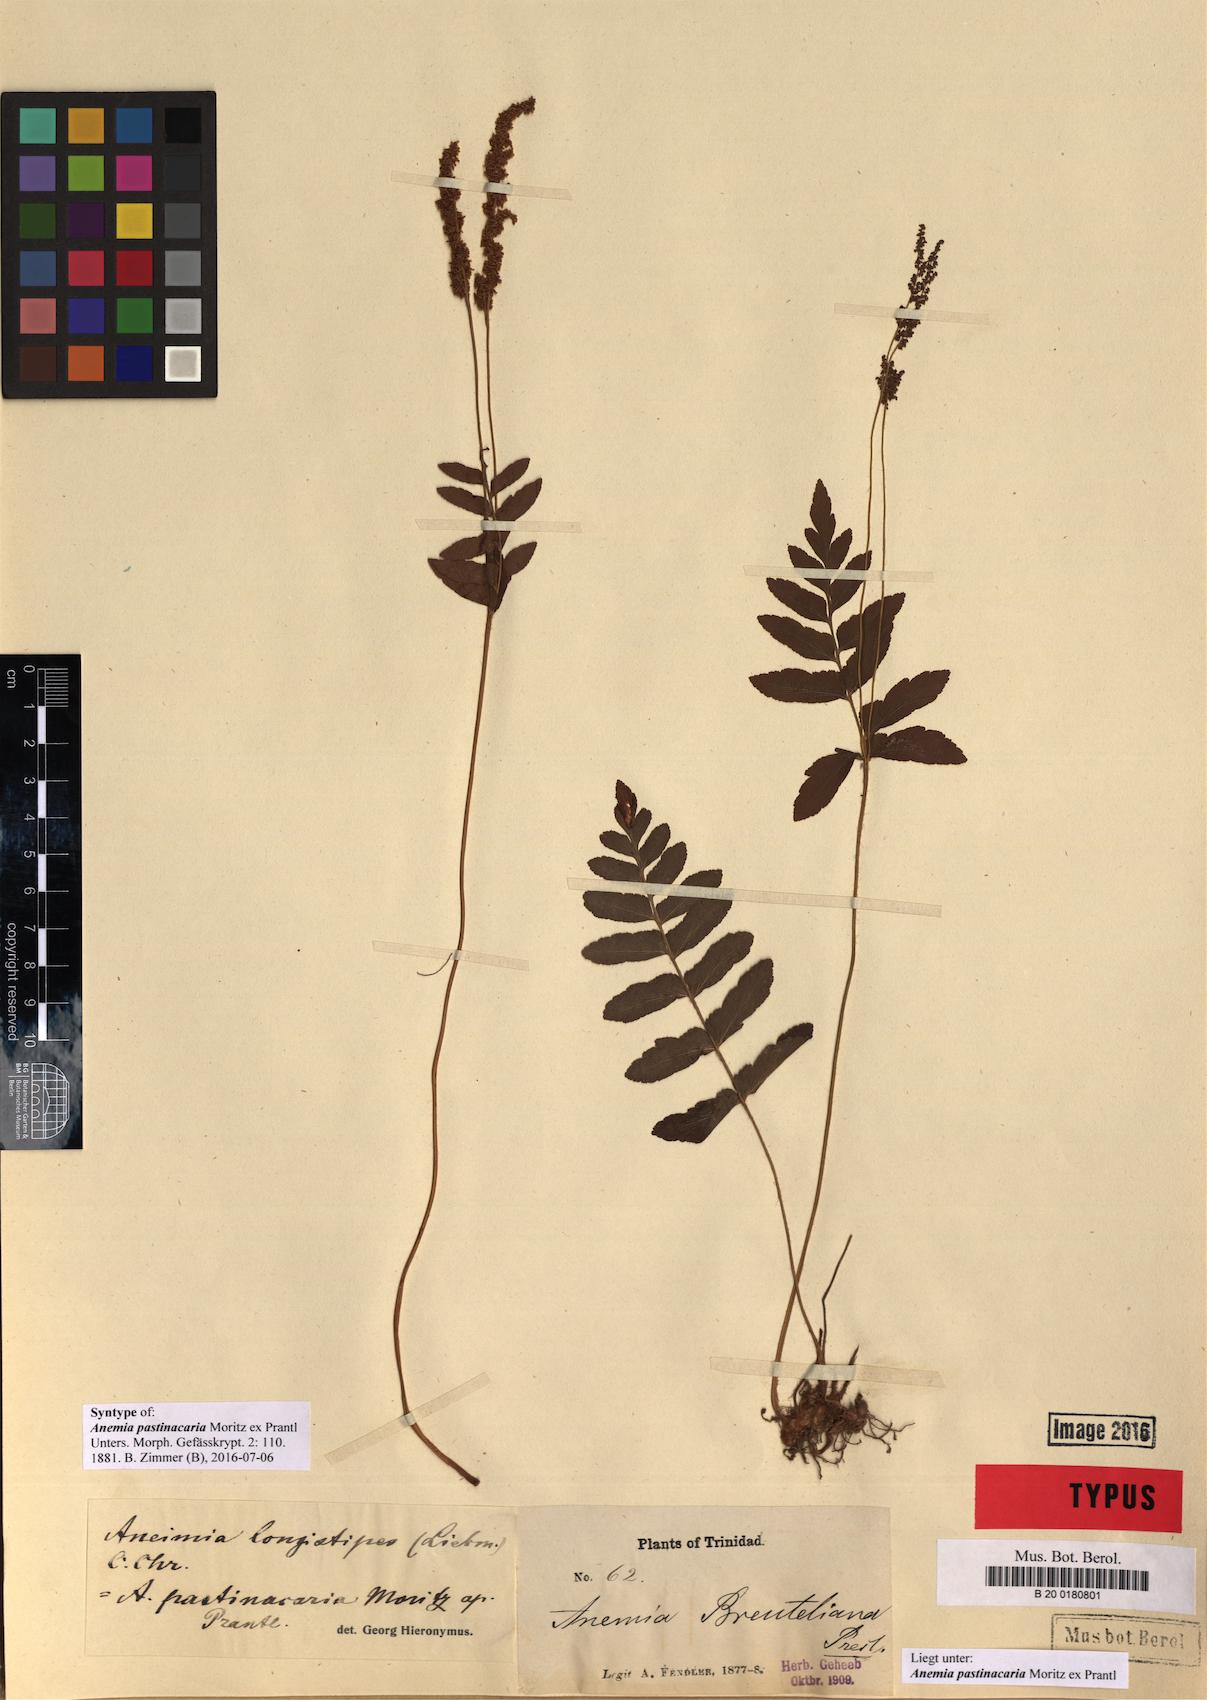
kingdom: Plantae
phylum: Tracheophyta
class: Polypodiopsida
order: Schizaeales
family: Anemiaceae
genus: Anemia
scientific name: Anemia hispida
